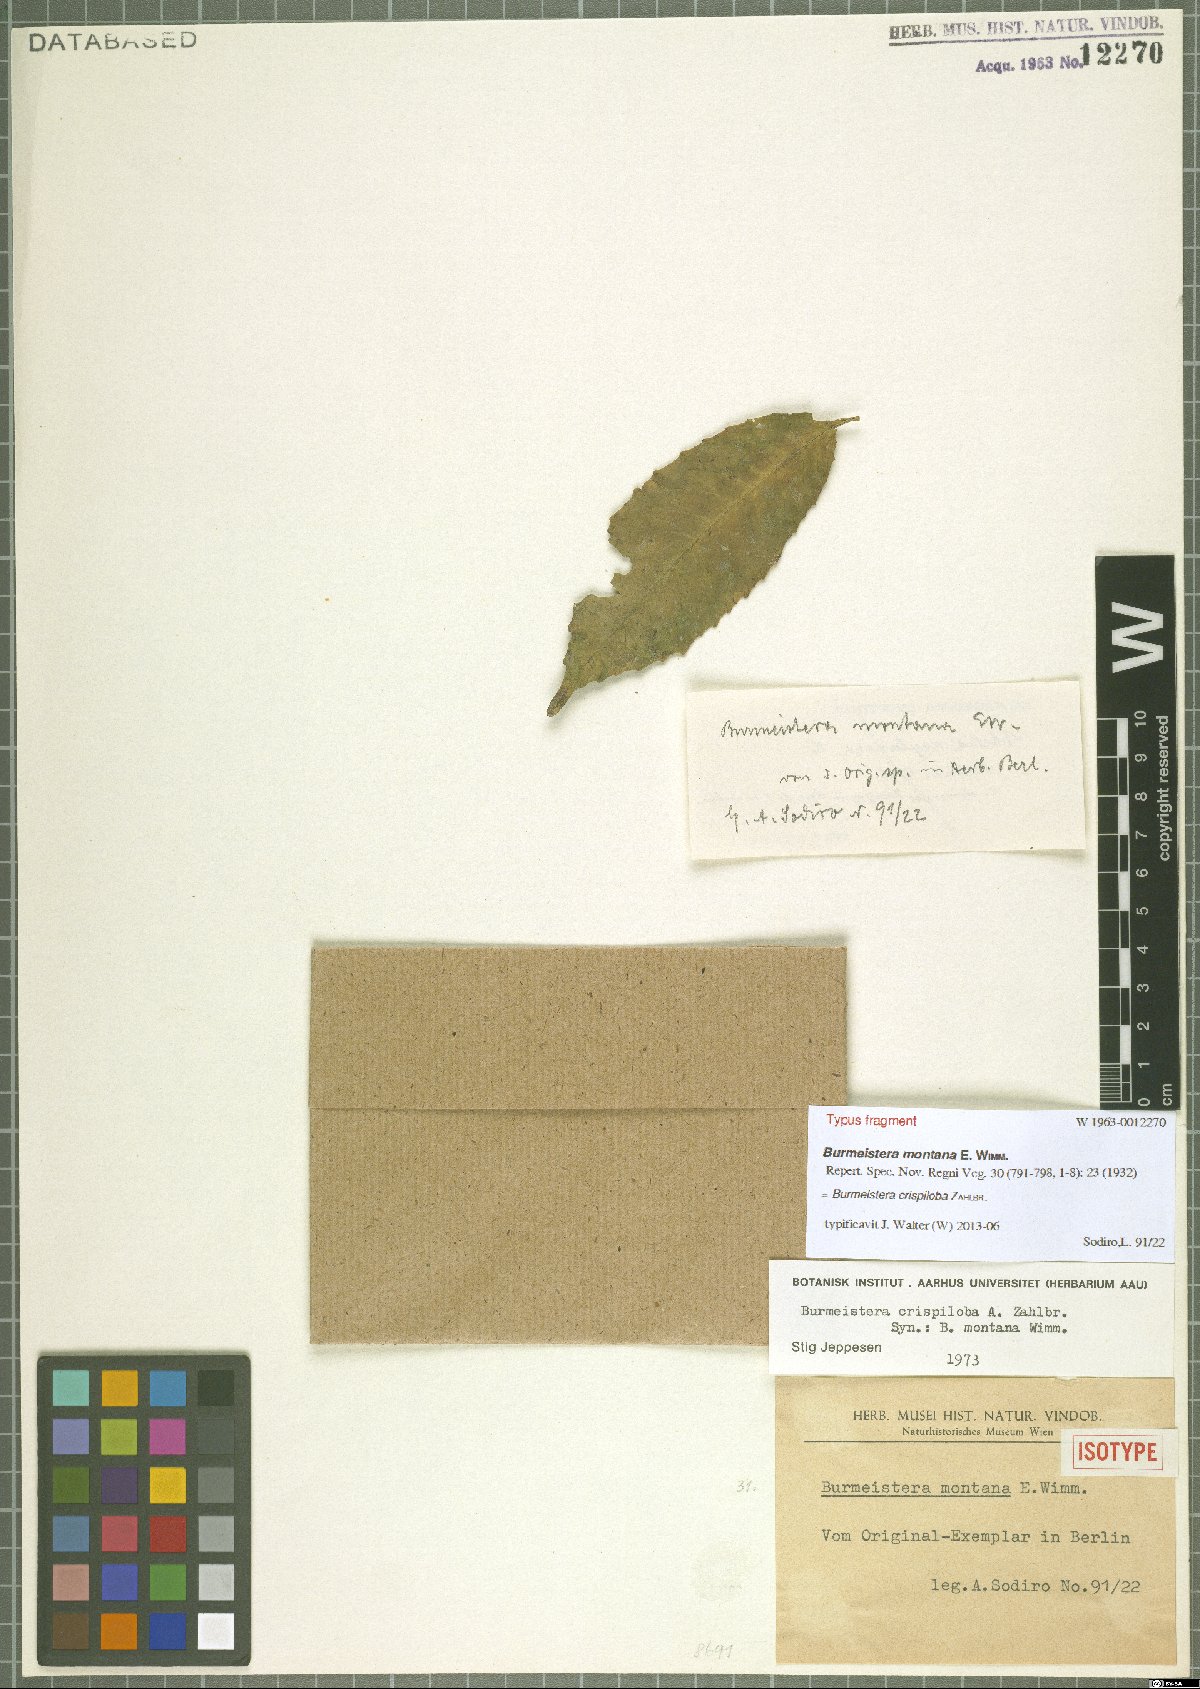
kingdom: Plantae
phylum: Tracheophyta
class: Magnoliopsida
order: Asterales
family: Campanulaceae
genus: Burmeistera
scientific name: Burmeistera crispiloba
